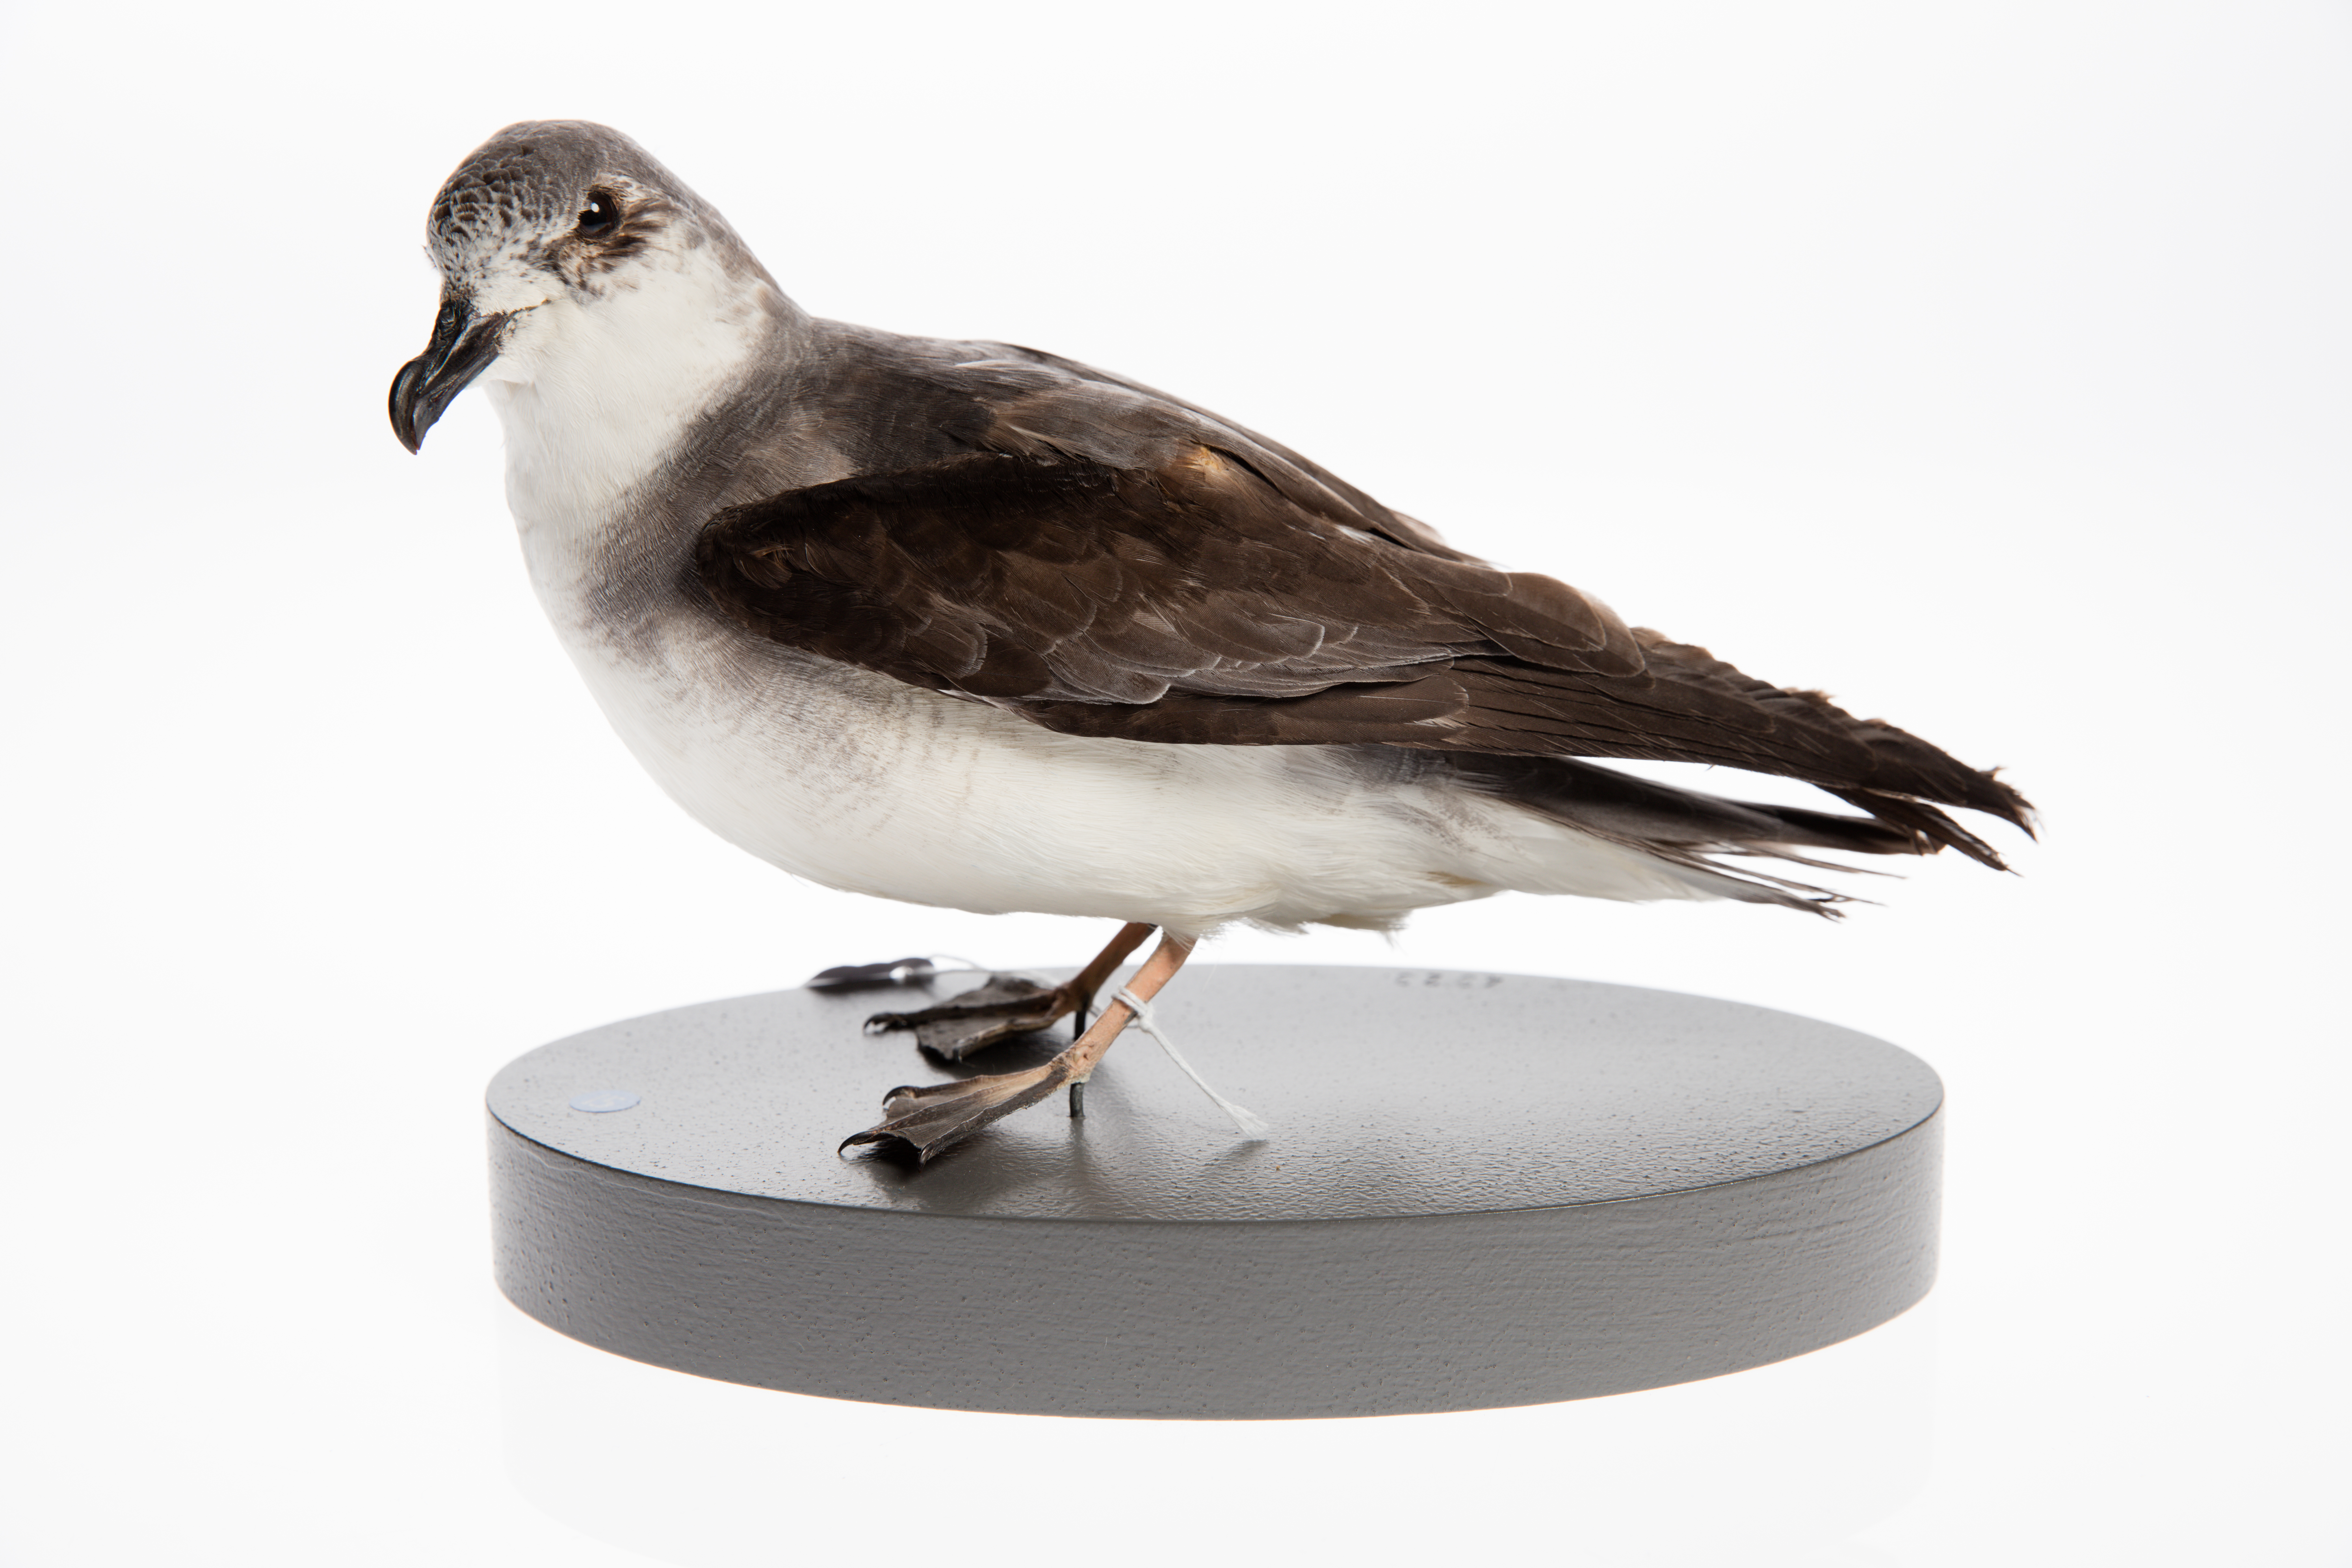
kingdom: Animalia
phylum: Chordata
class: Aves
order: Procellariiformes
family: Procellariidae
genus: Pterodroma
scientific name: Pterodroma nigripennis
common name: Black-winged petrel
